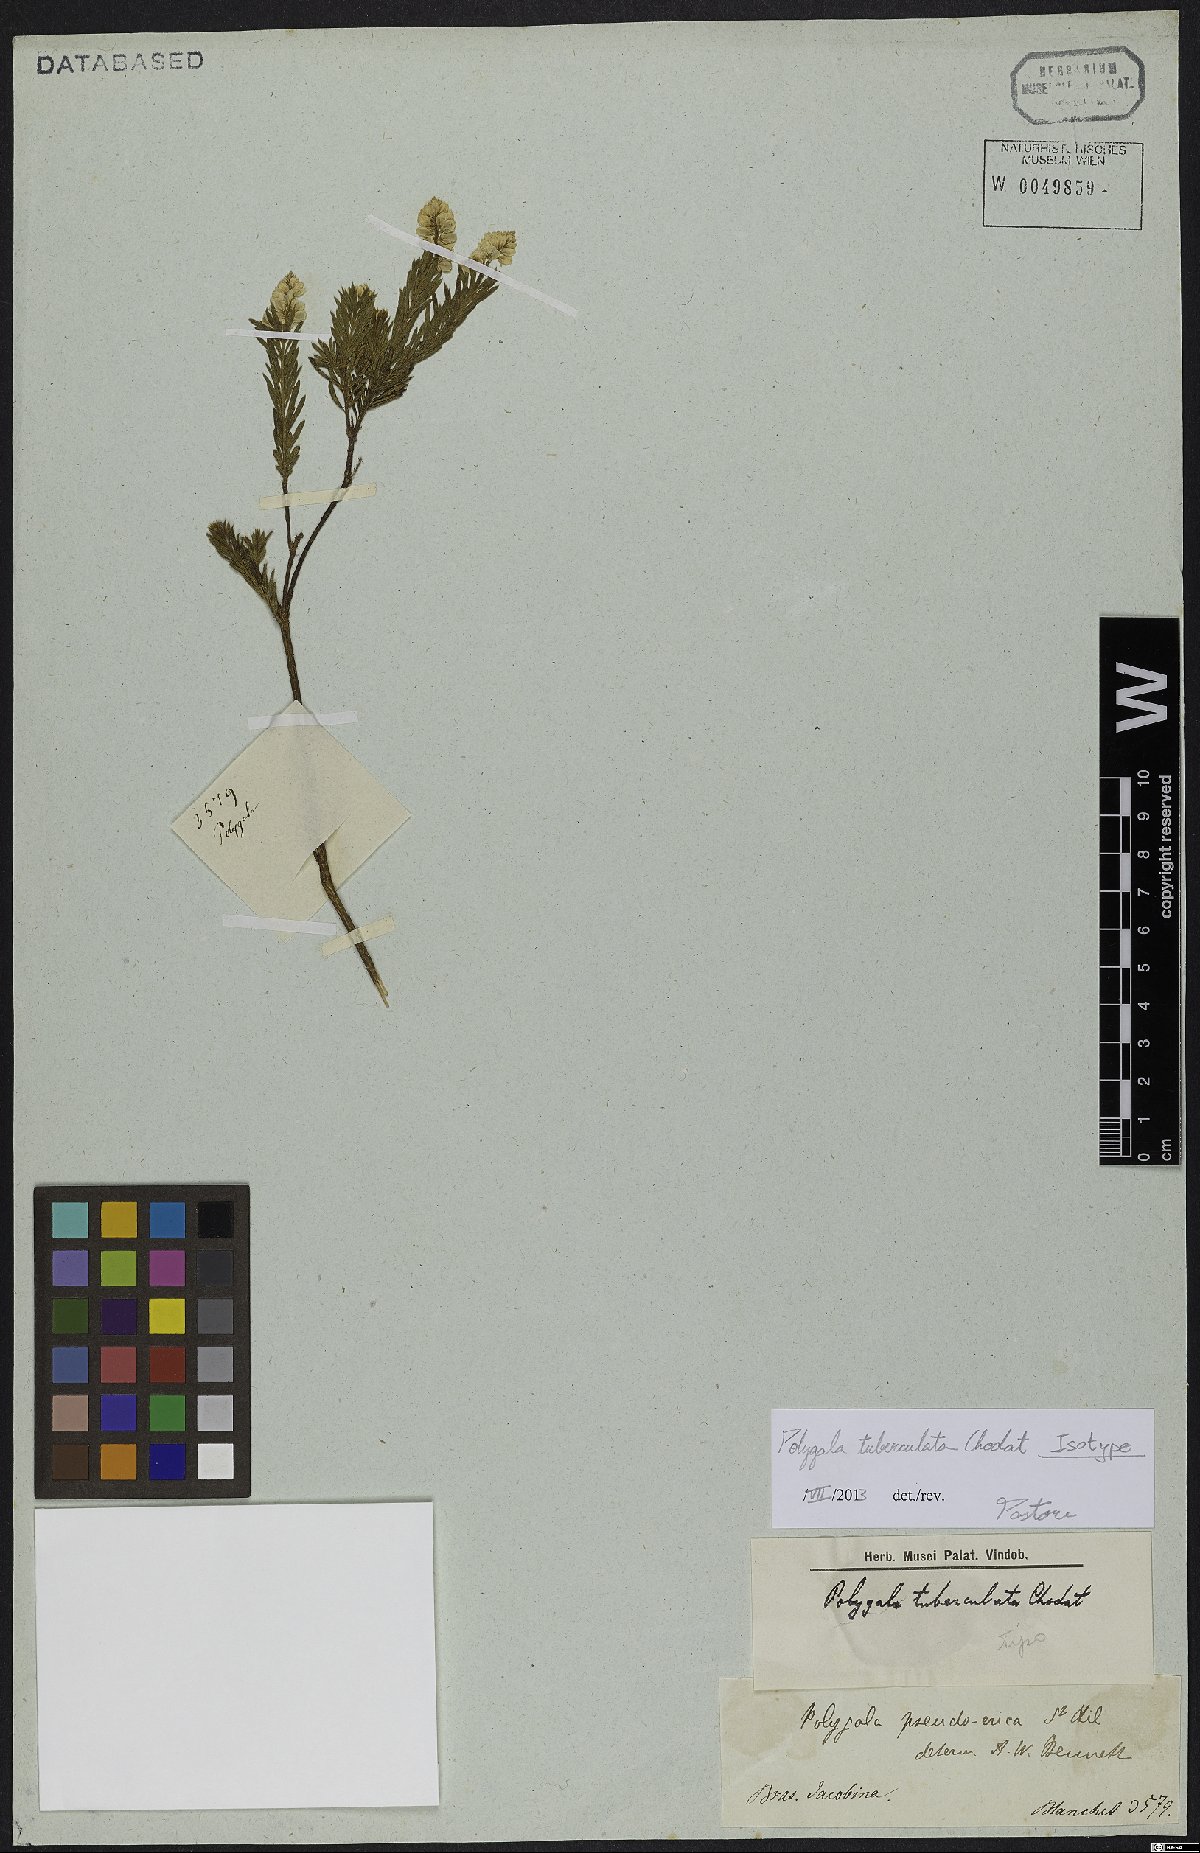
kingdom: Plantae
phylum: Tracheophyta
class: Magnoliopsida
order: Fabales
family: Polygalaceae
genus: Polygala
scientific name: Polygala tuberculata
